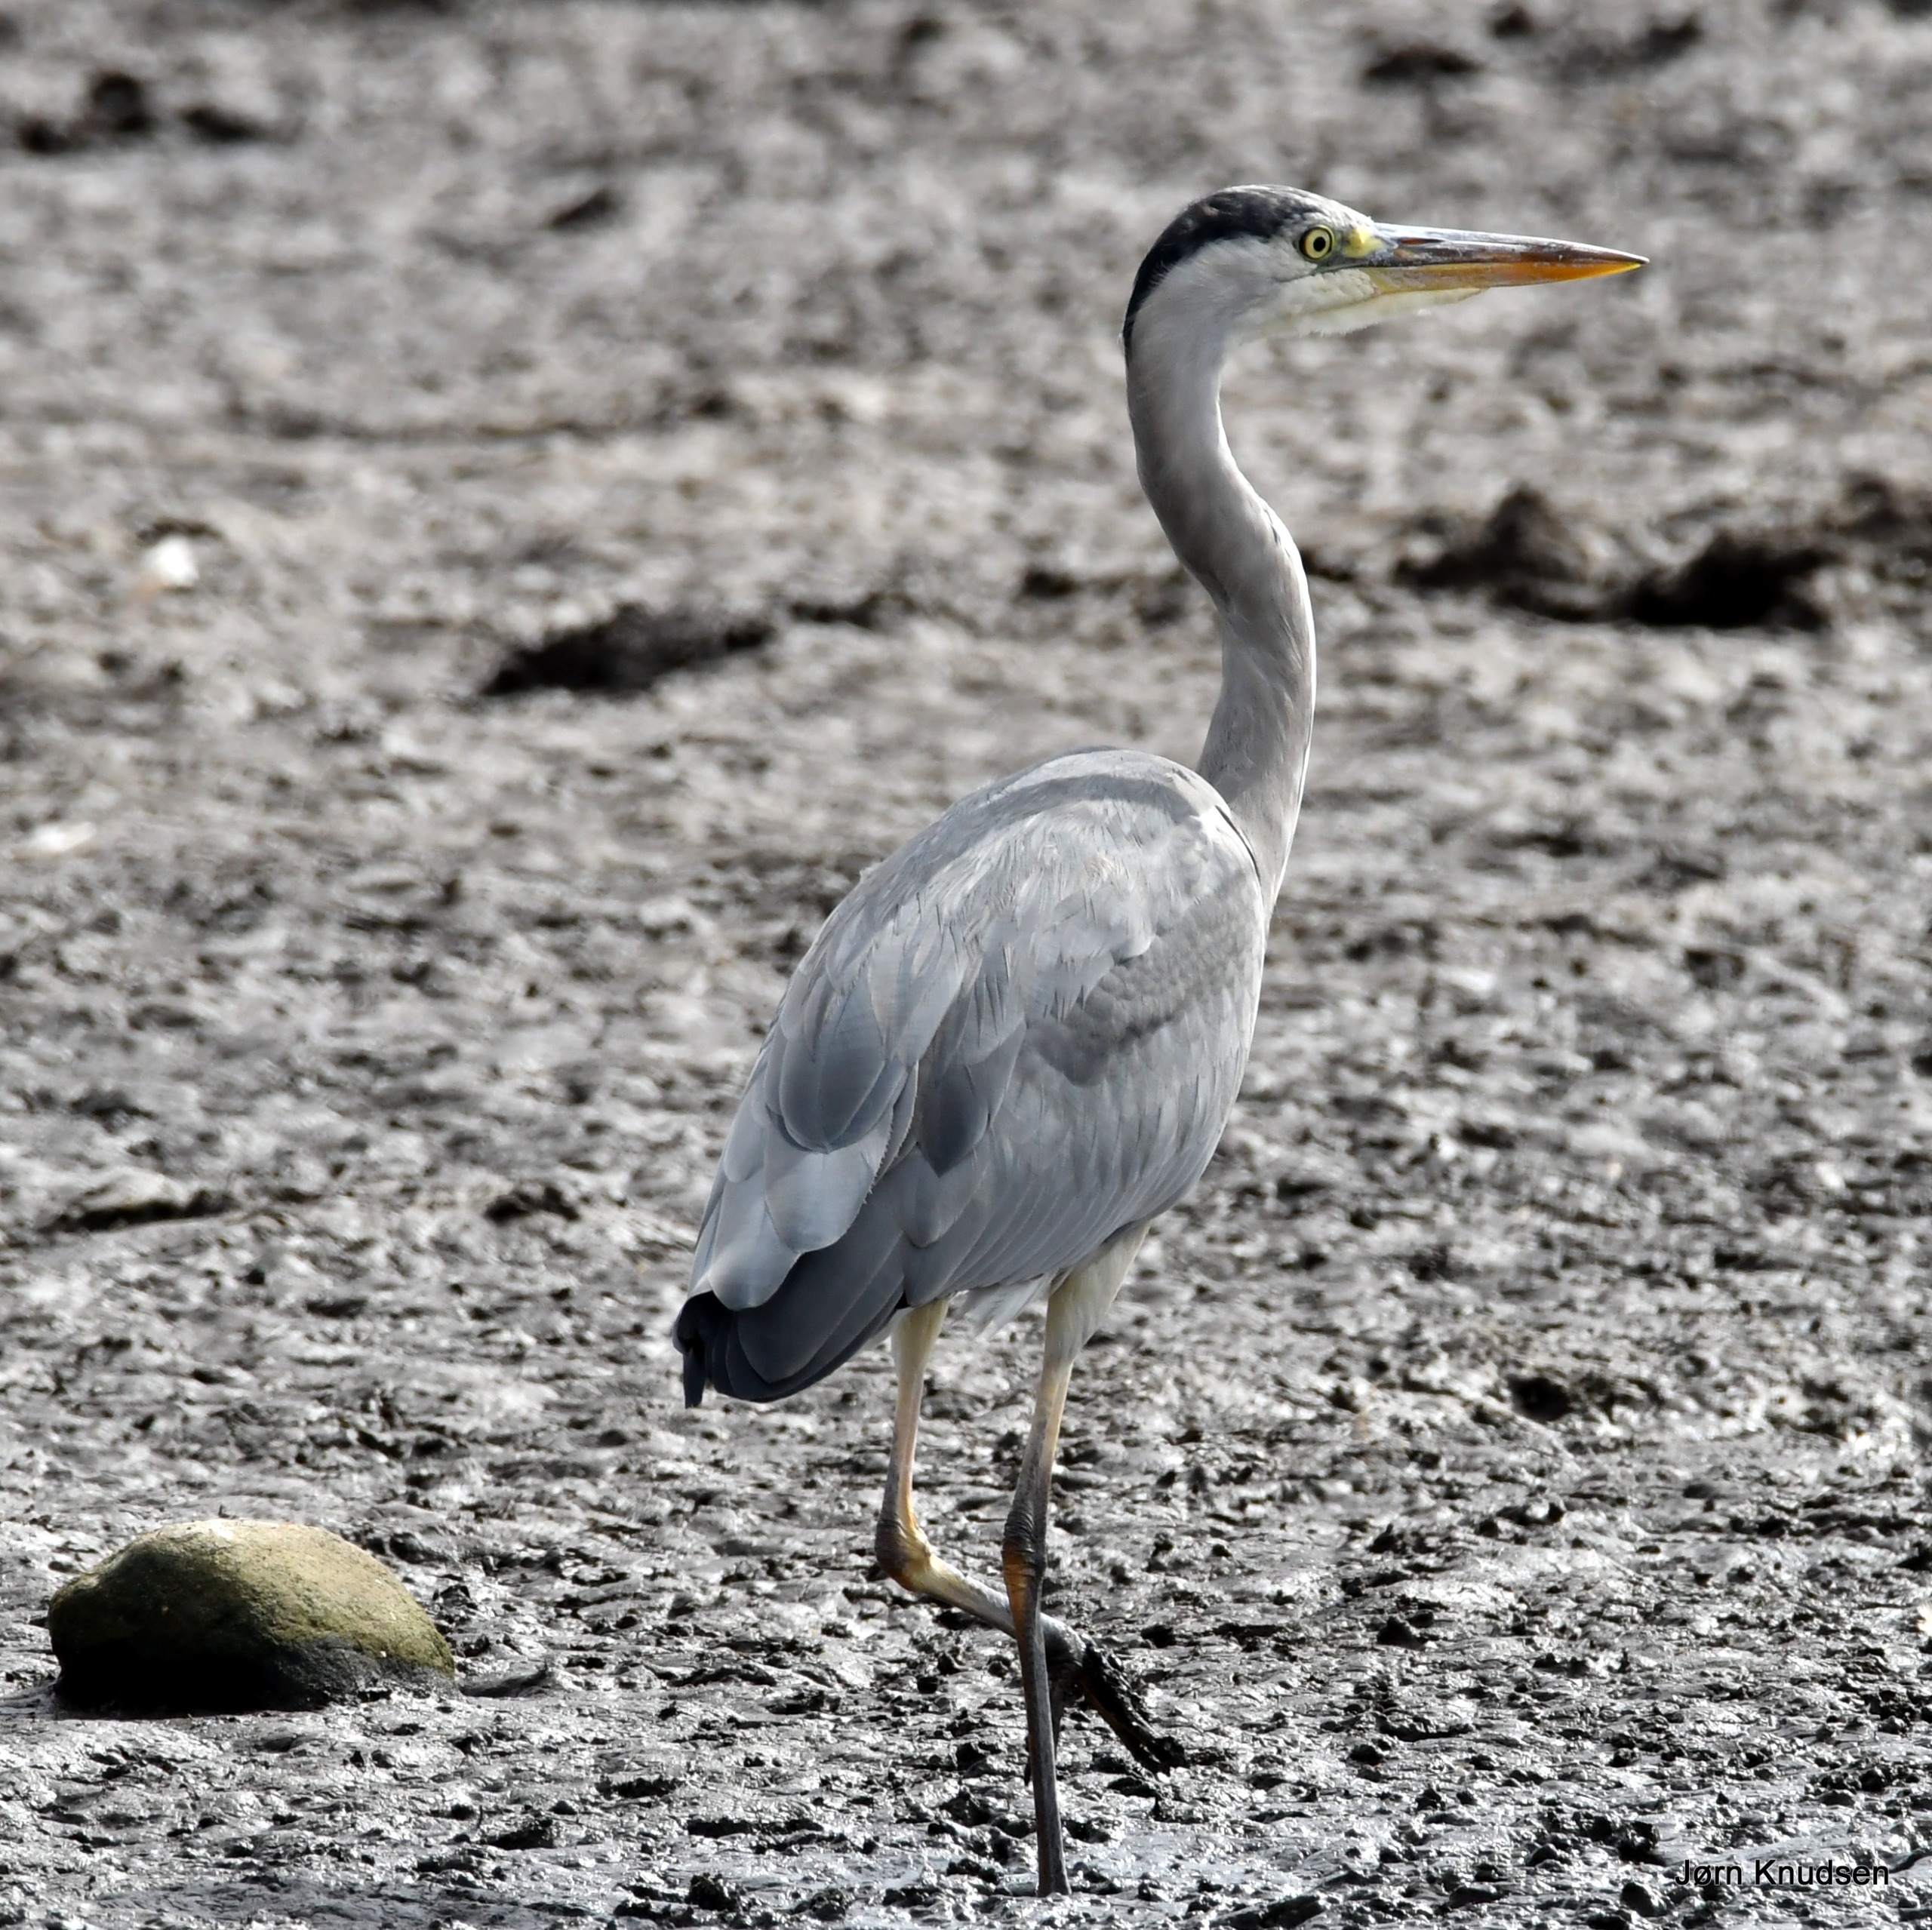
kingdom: Animalia
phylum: Chordata
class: Aves
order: Pelecaniformes
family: Ardeidae
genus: Ardea
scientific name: Ardea cinerea
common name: Fiskehejre
